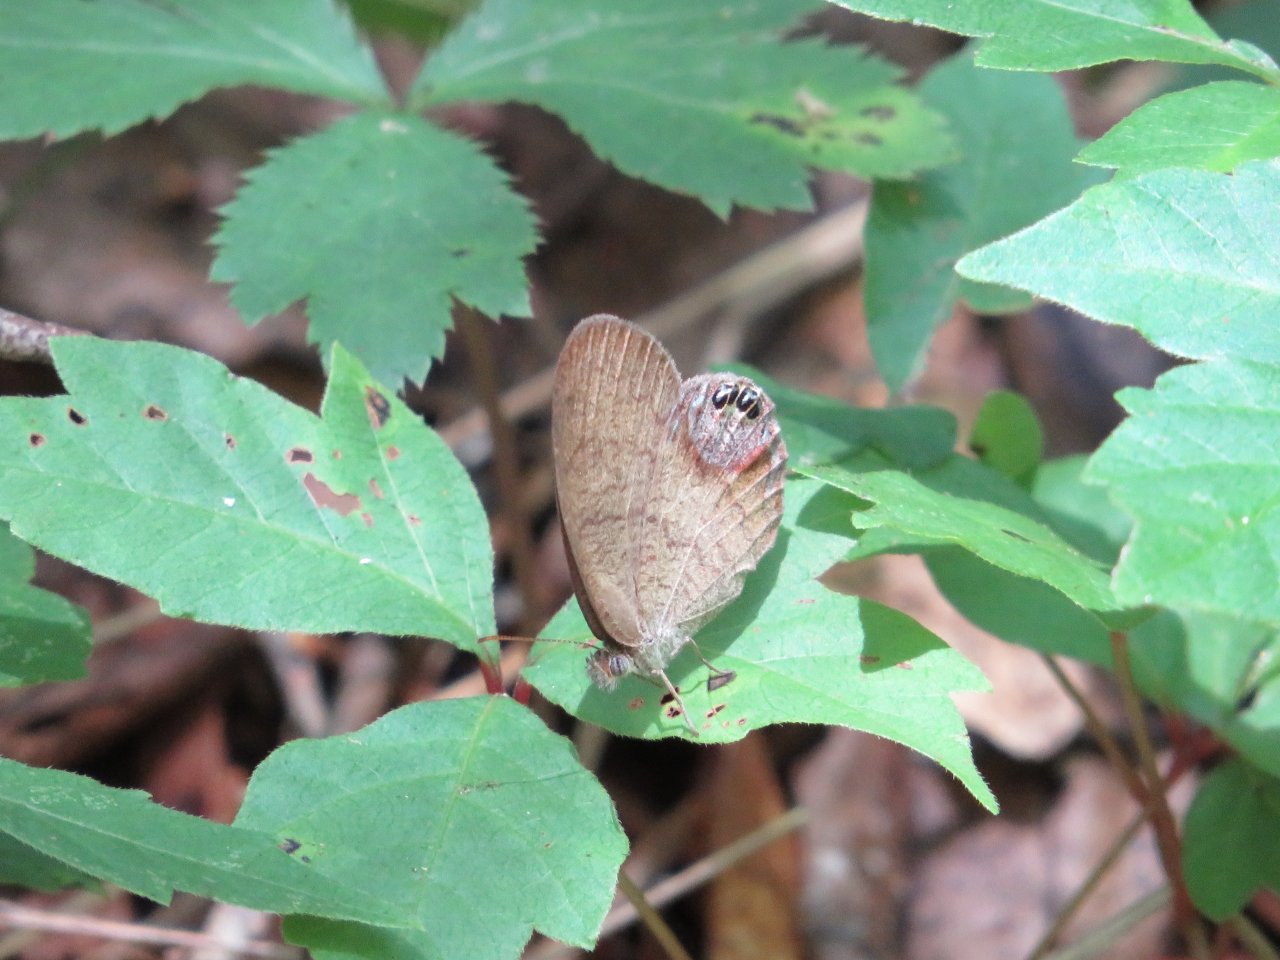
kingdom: Animalia
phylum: Arthropoda
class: Insecta
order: Lepidoptera
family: Nymphalidae
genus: Euptychia
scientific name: Euptychia cornelius
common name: Gemmed Satyr
